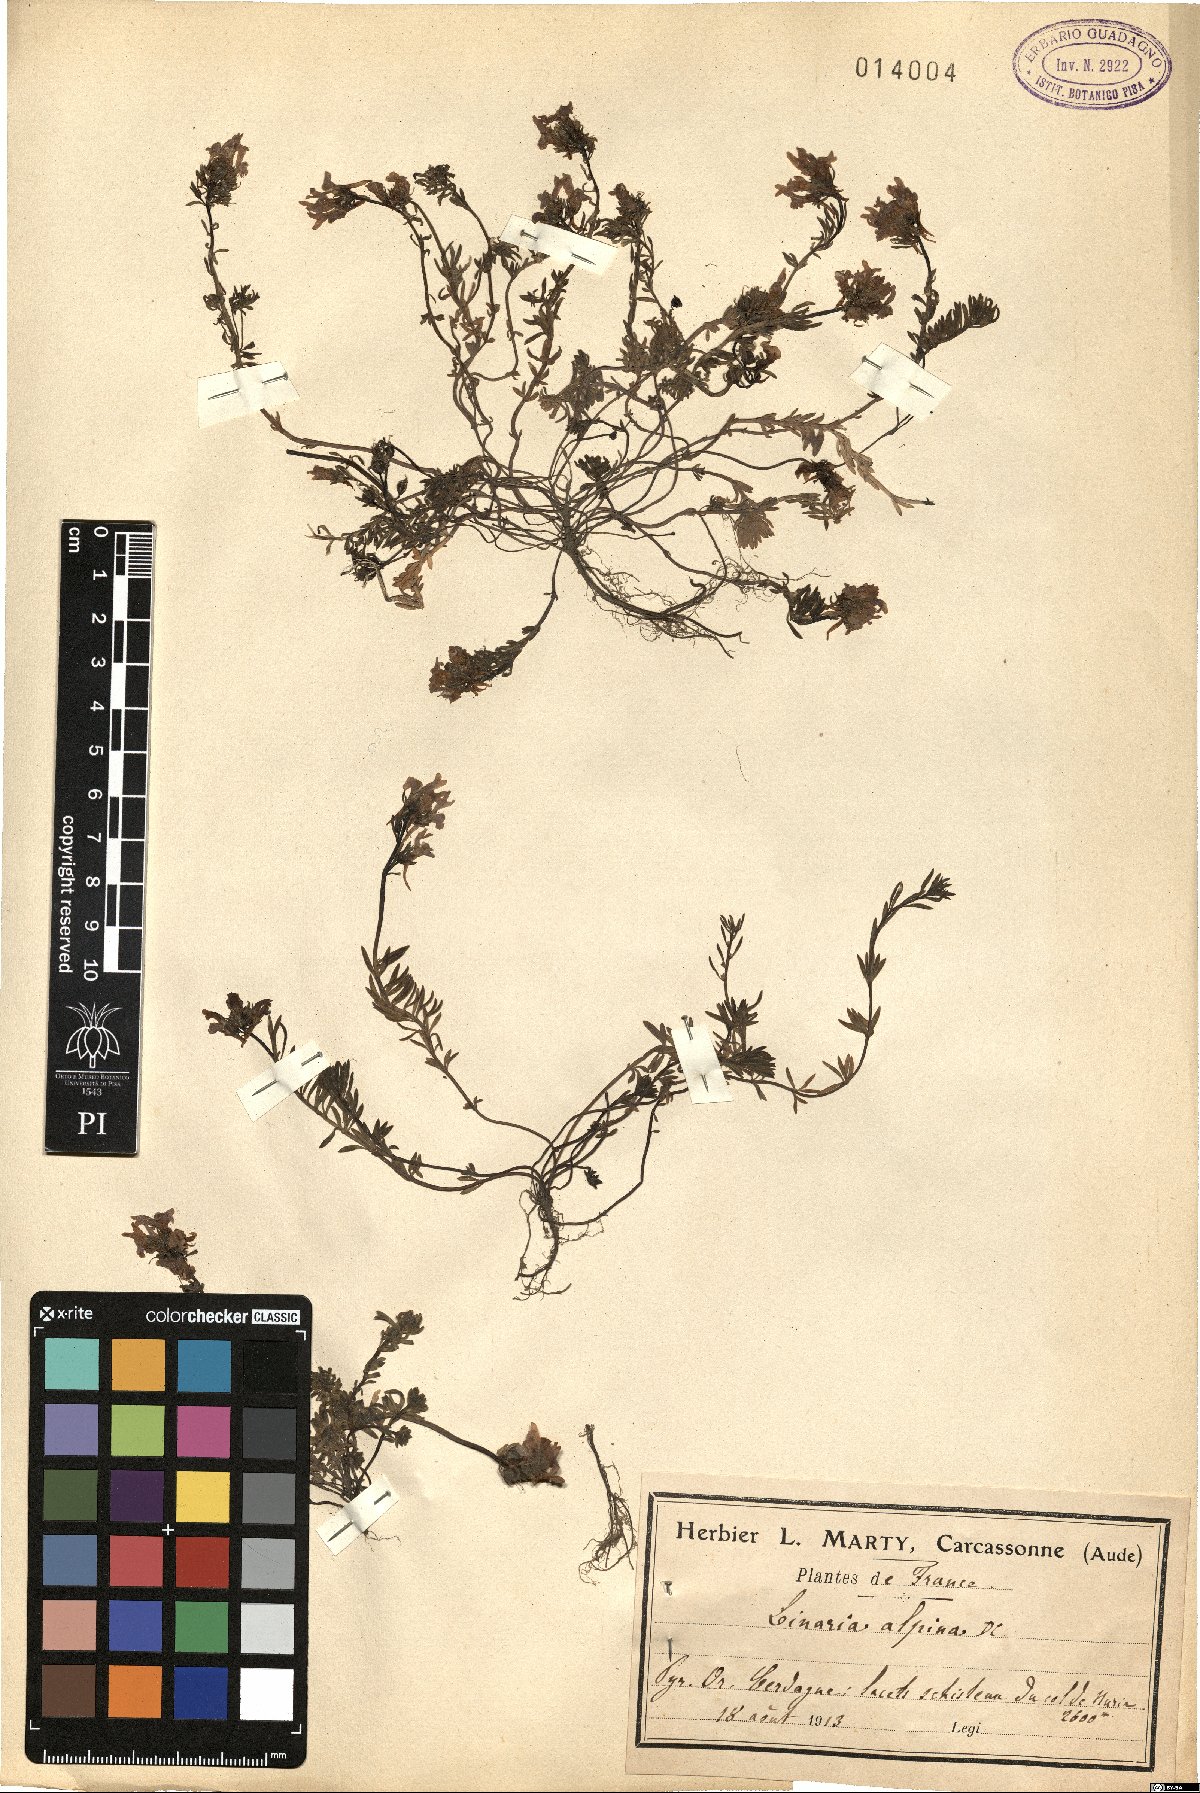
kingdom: Plantae
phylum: Tracheophyta
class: Magnoliopsida
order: Lamiales
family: Plantaginaceae
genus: Linaria
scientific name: Linaria alpina
